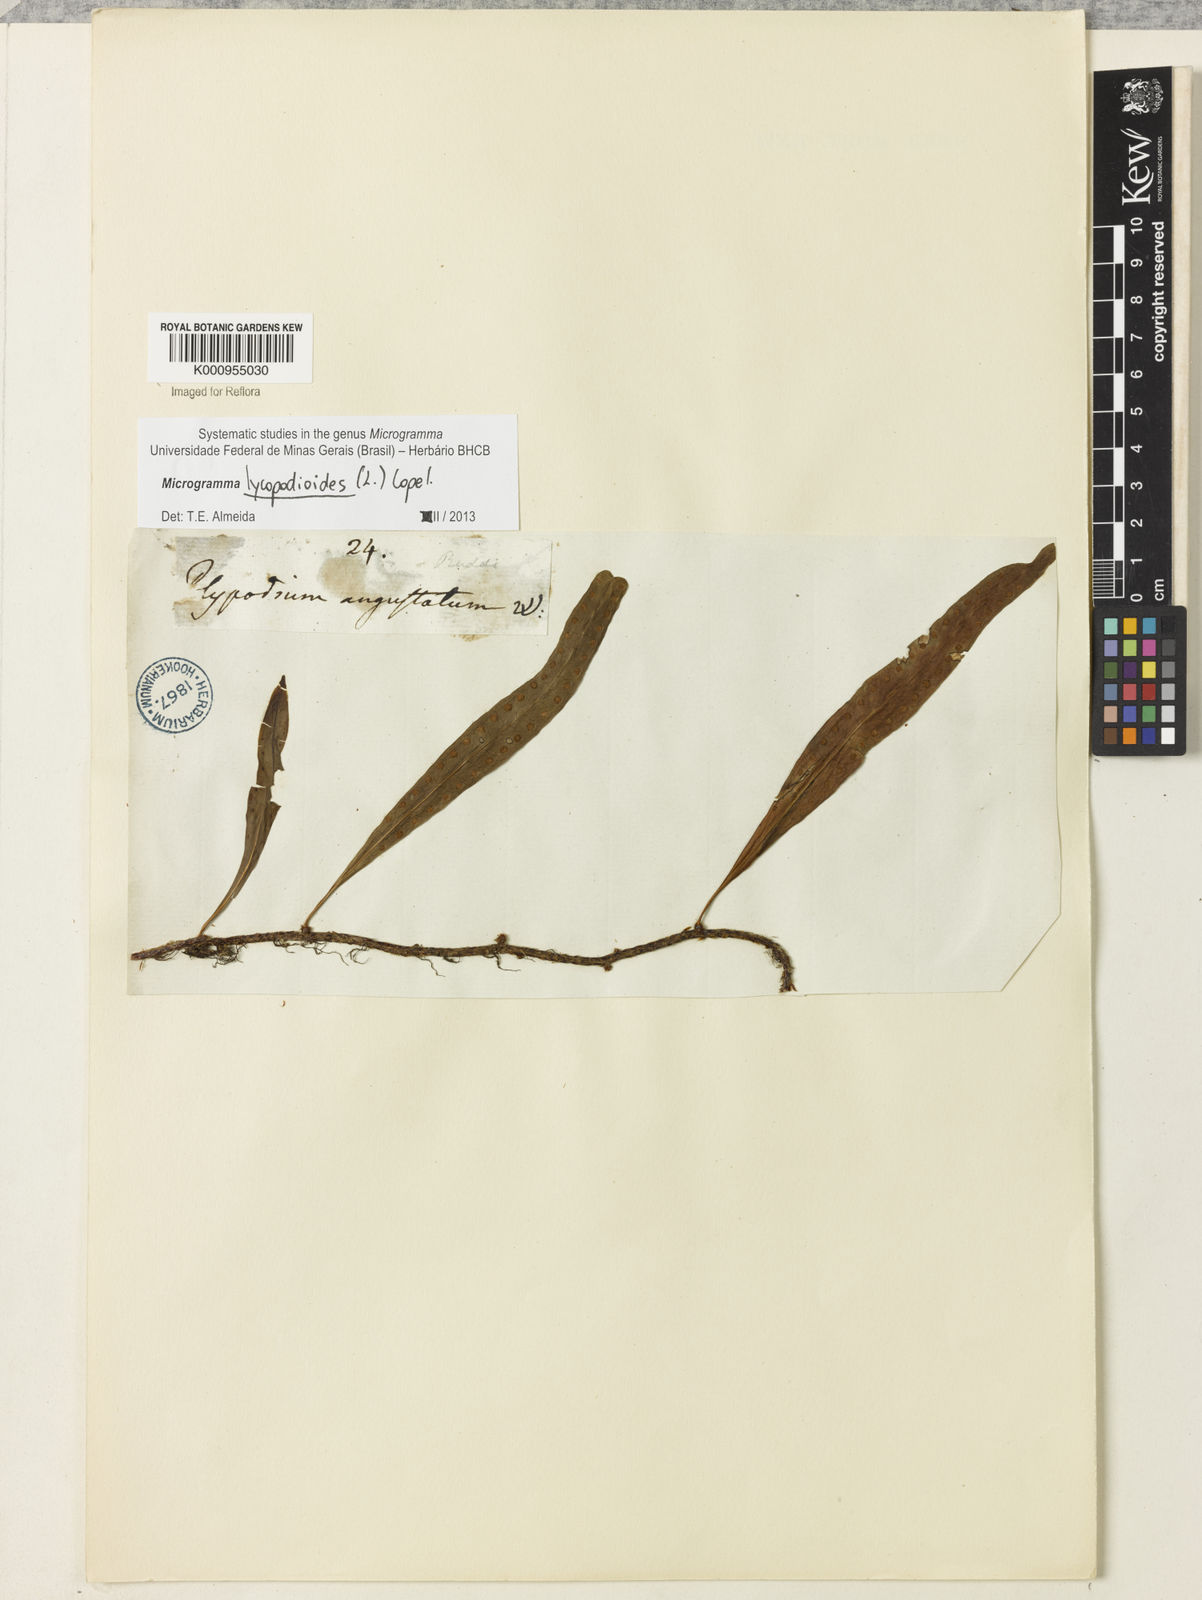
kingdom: Plantae
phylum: Tracheophyta
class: Polypodiopsida
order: Polypodiales
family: Polypodiaceae
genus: Microgramma
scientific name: Microgramma lycopodioides
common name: Bastard catclaw
